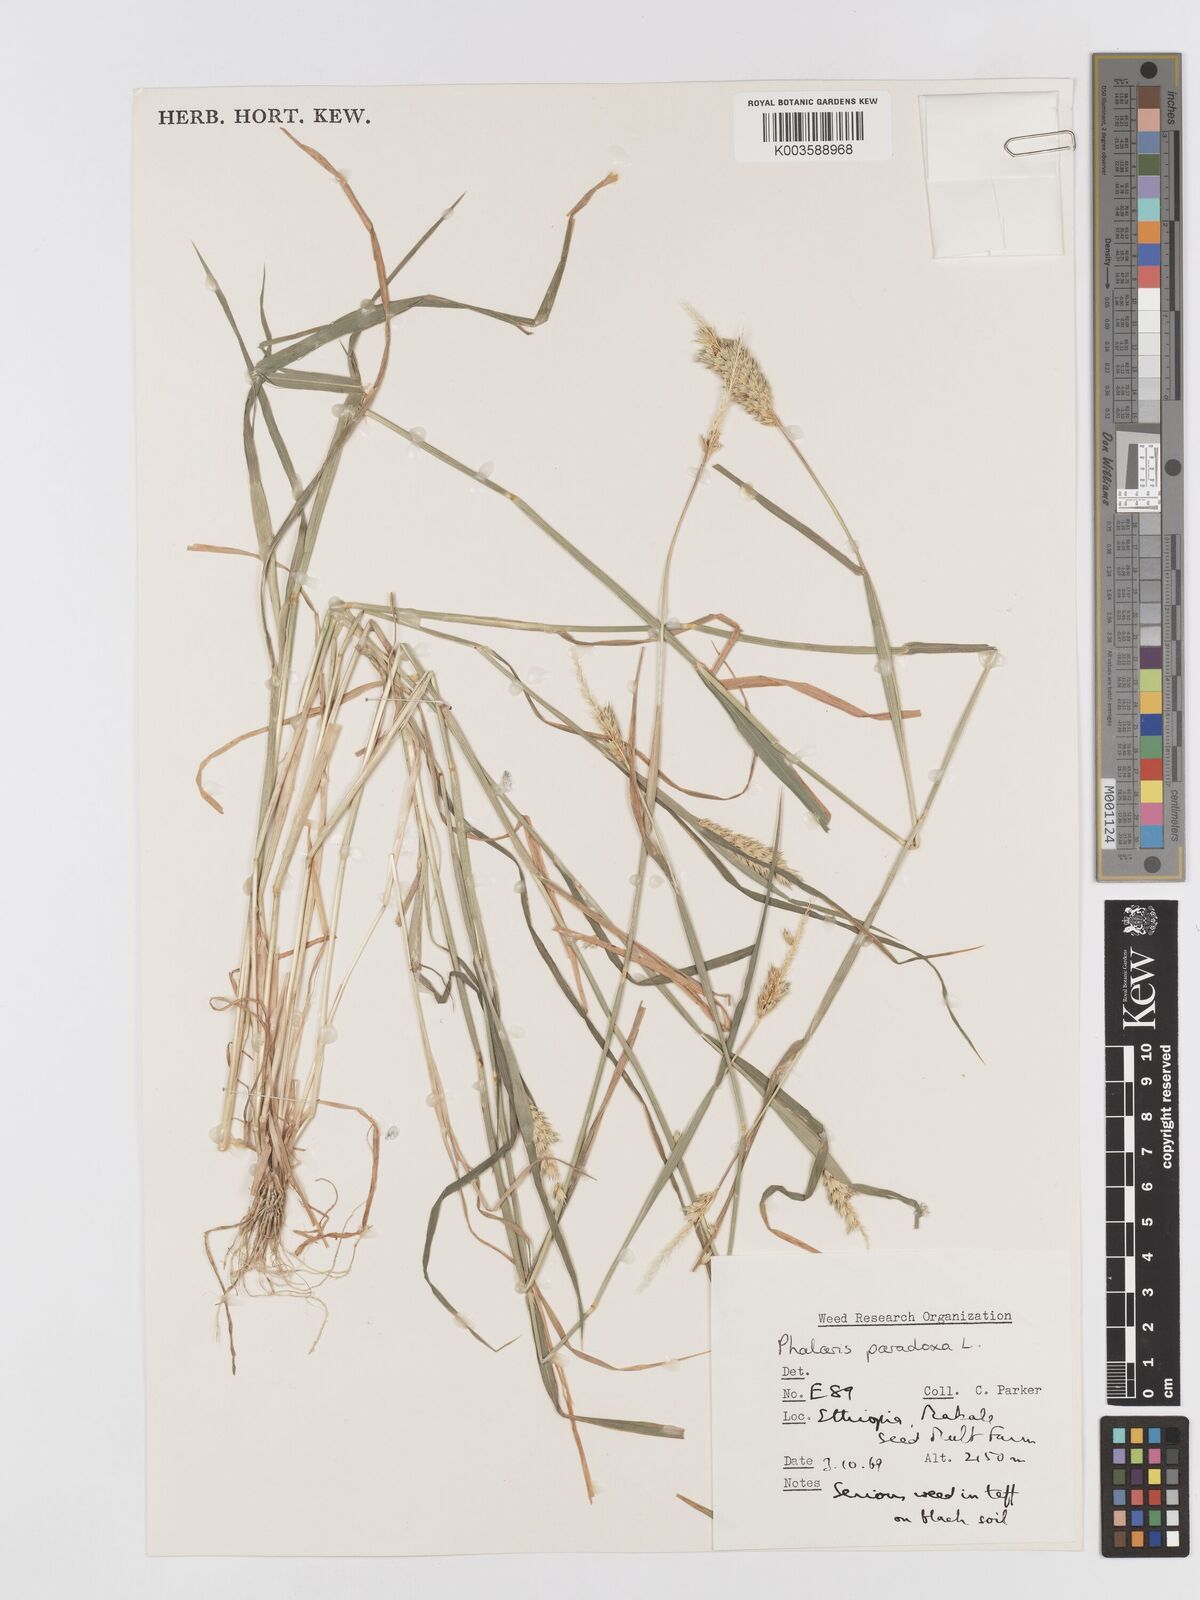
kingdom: Plantae
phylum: Tracheophyta
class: Liliopsida
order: Poales
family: Poaceae
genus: Phalaris
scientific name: Phalaris paradoxa
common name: Awned canary-grass
